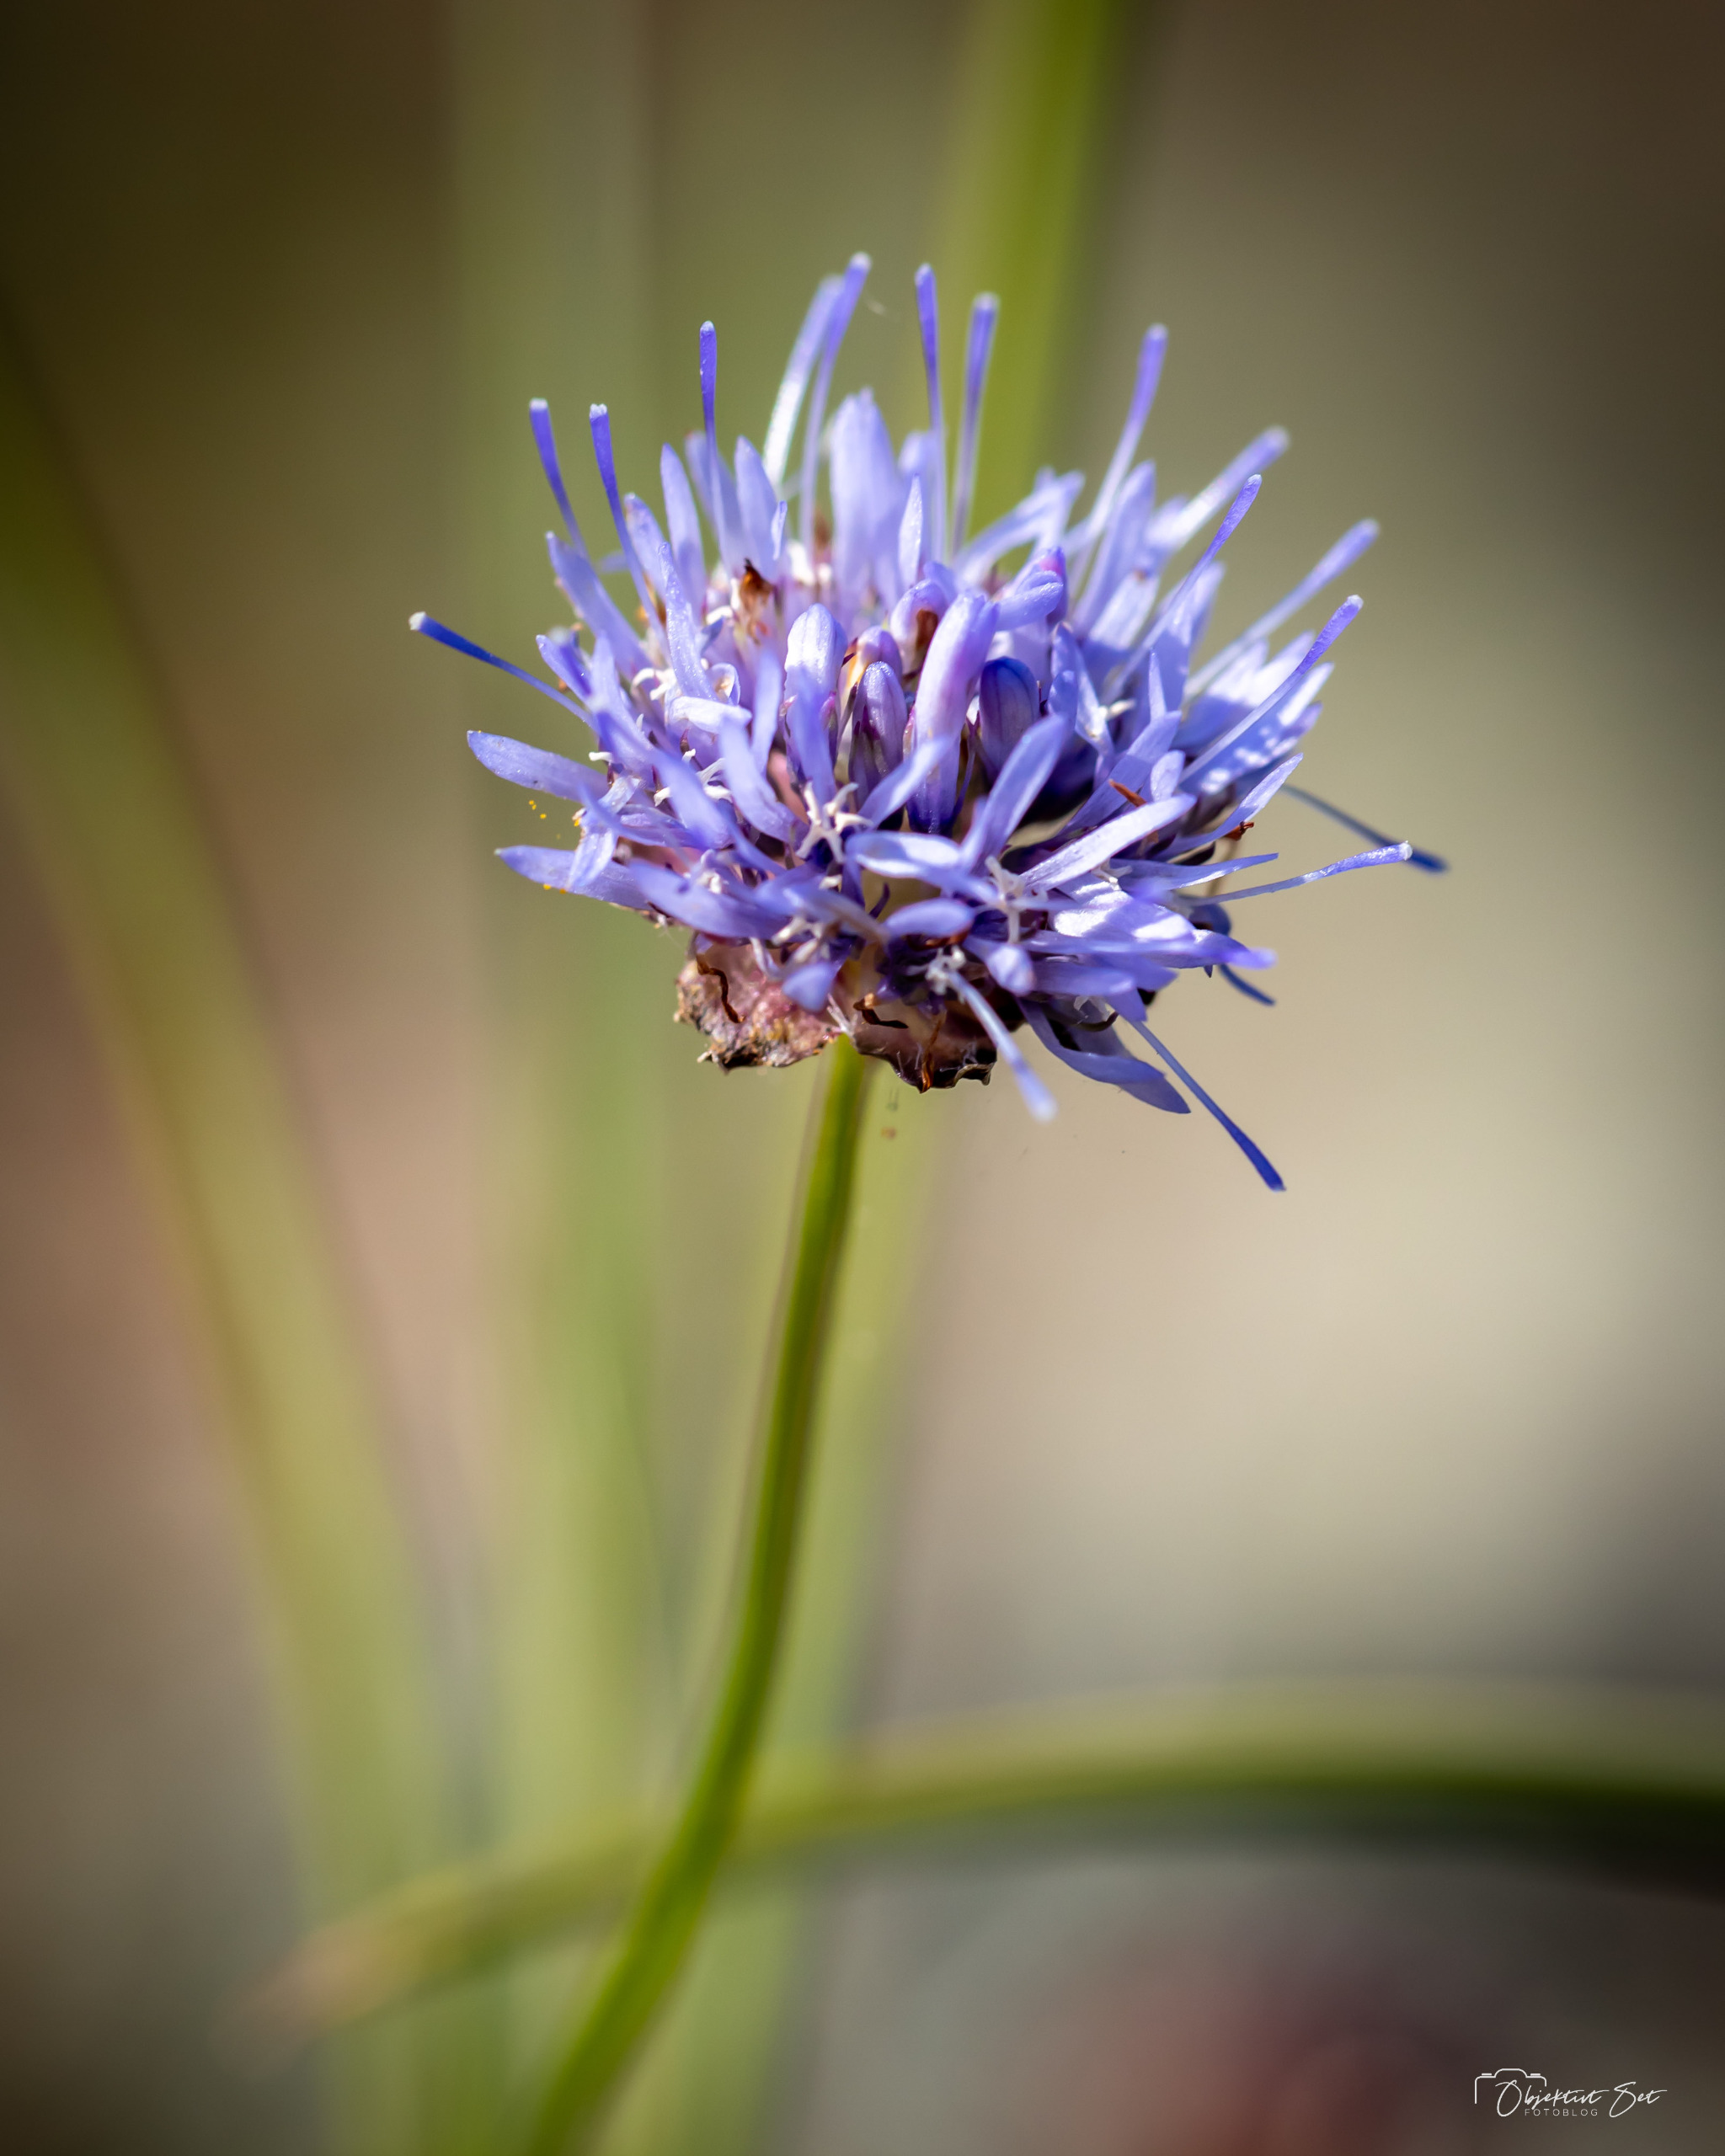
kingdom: Plantae
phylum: Tracheophyta
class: Magnoliopsida
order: Asterales
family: Campanulaceae
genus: Jasione
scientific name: Jasione montana
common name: Blåmunke
